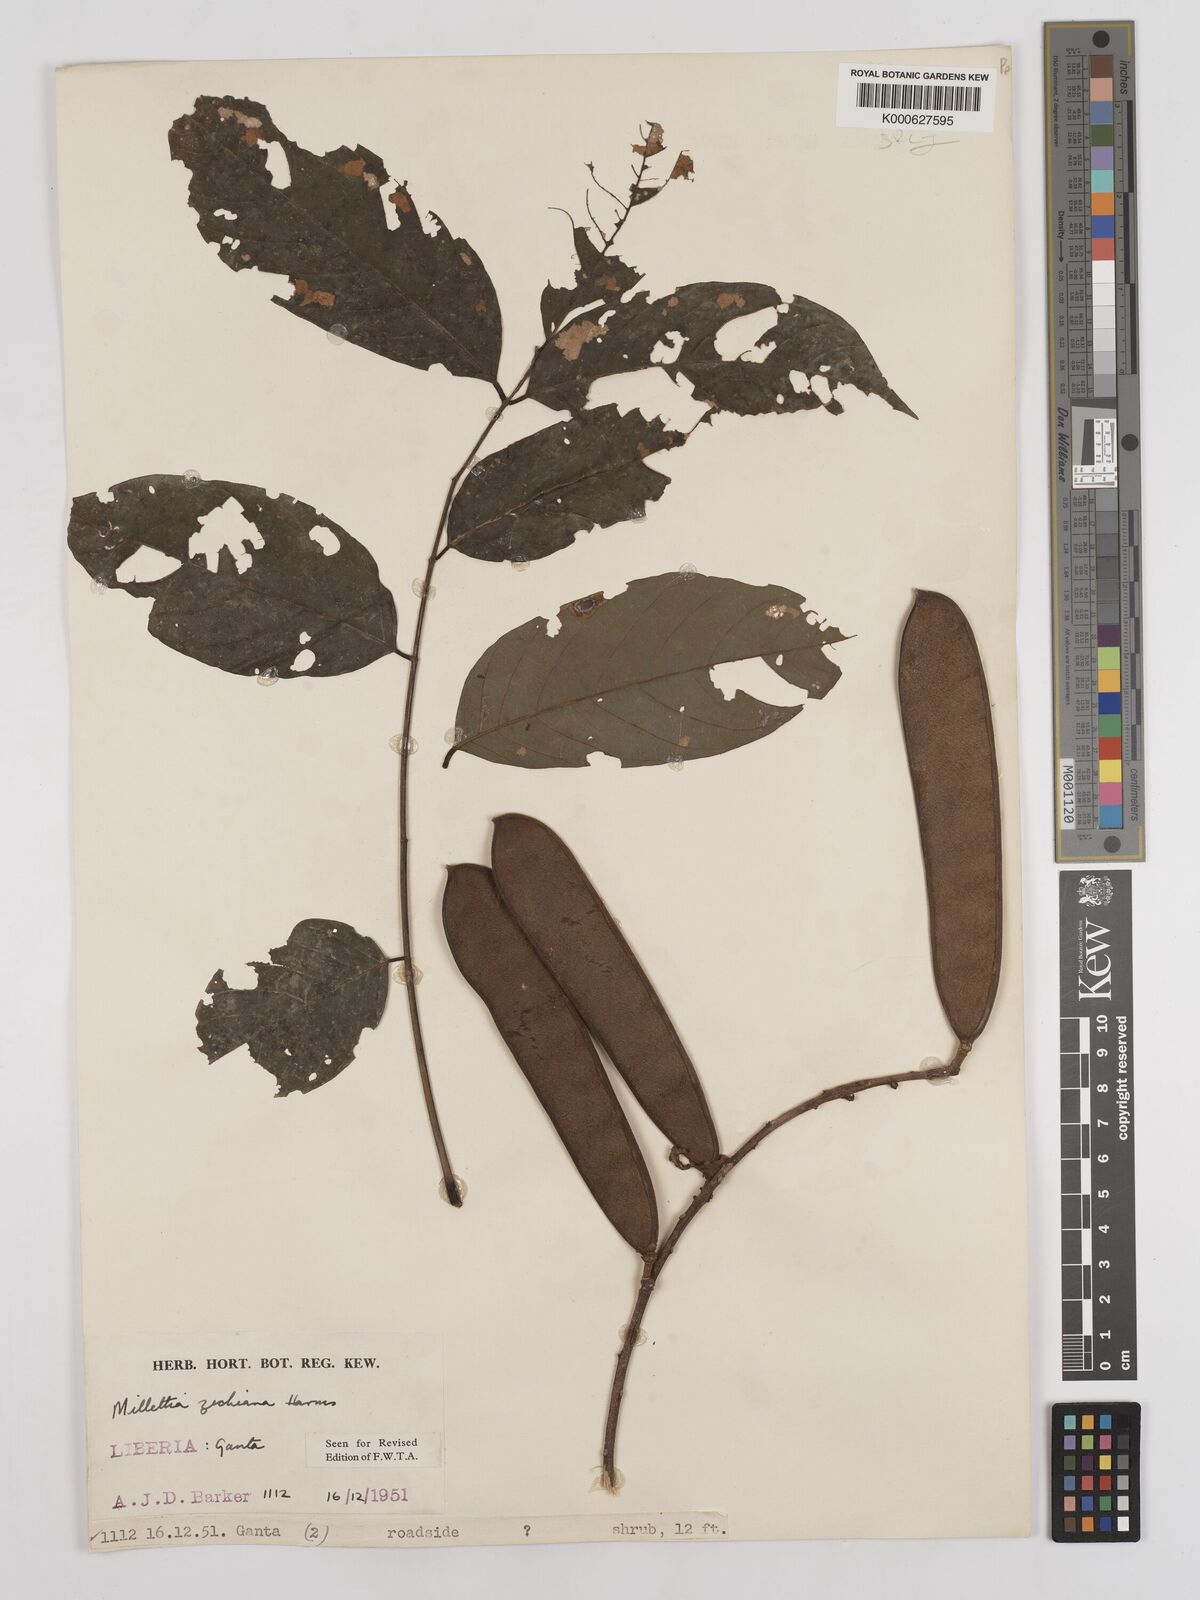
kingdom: Plantae
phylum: Tracheophyta
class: Magnoliopsida
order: Fabales
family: Fabaceae
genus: Millettia
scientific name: Millettia zechiana
